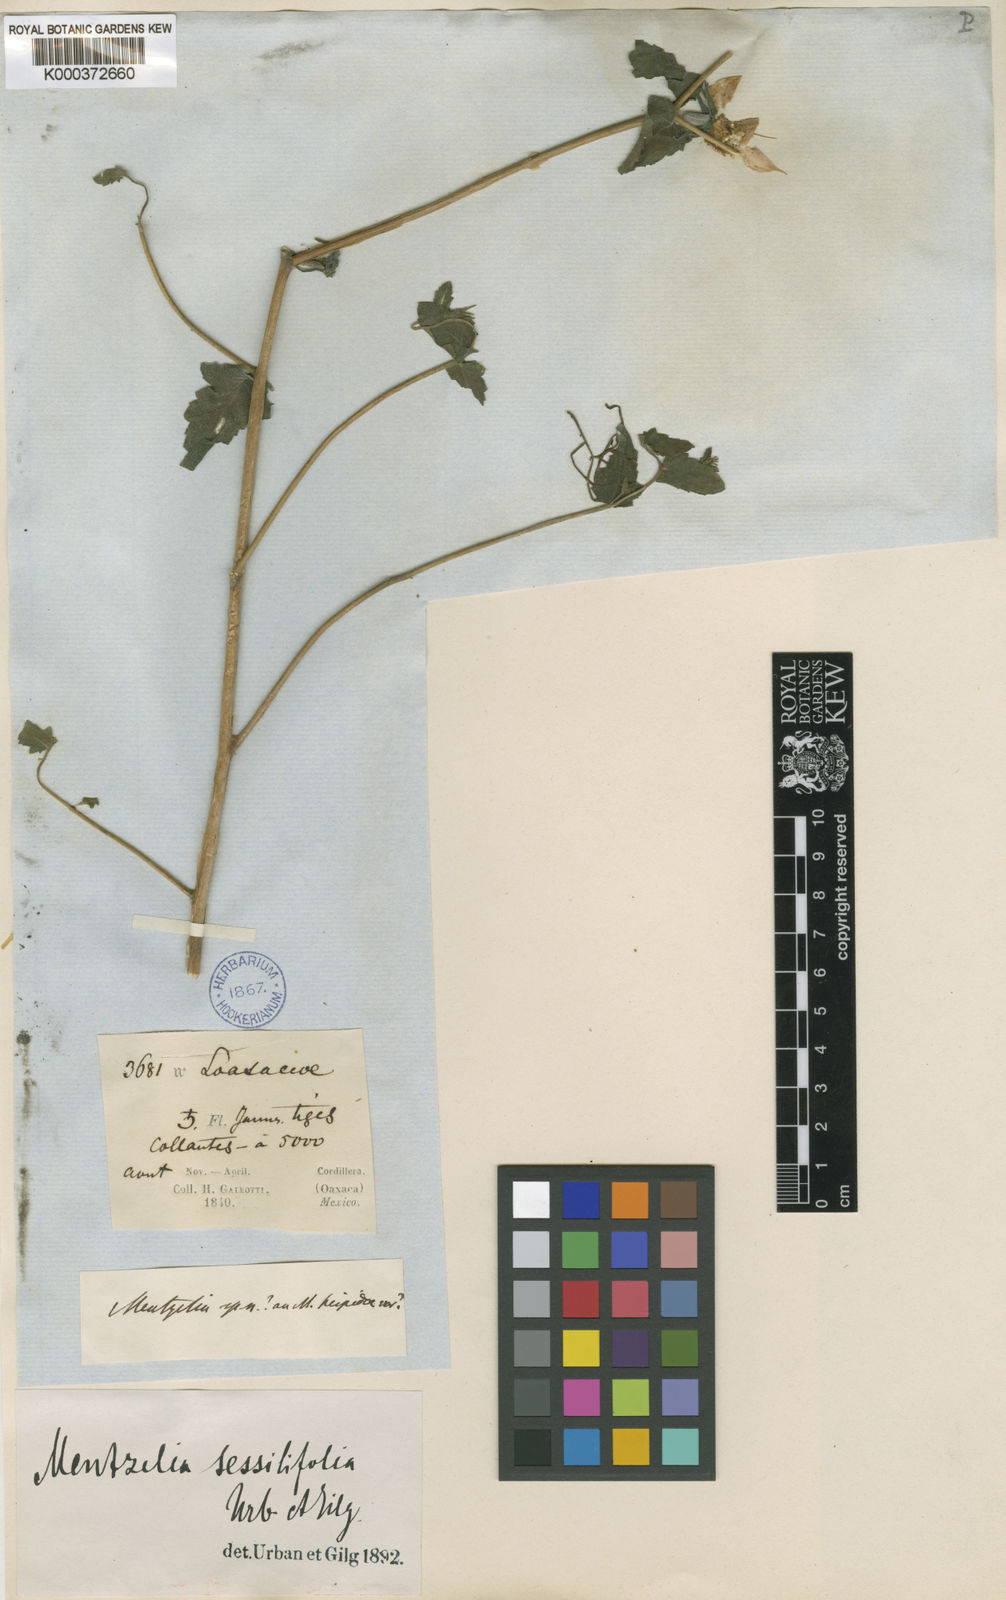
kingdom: Plantae
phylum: Tracheophyta
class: Magnoliopsida
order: Cornales
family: Loasaceae
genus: Mentzelia
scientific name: Mentzelia
